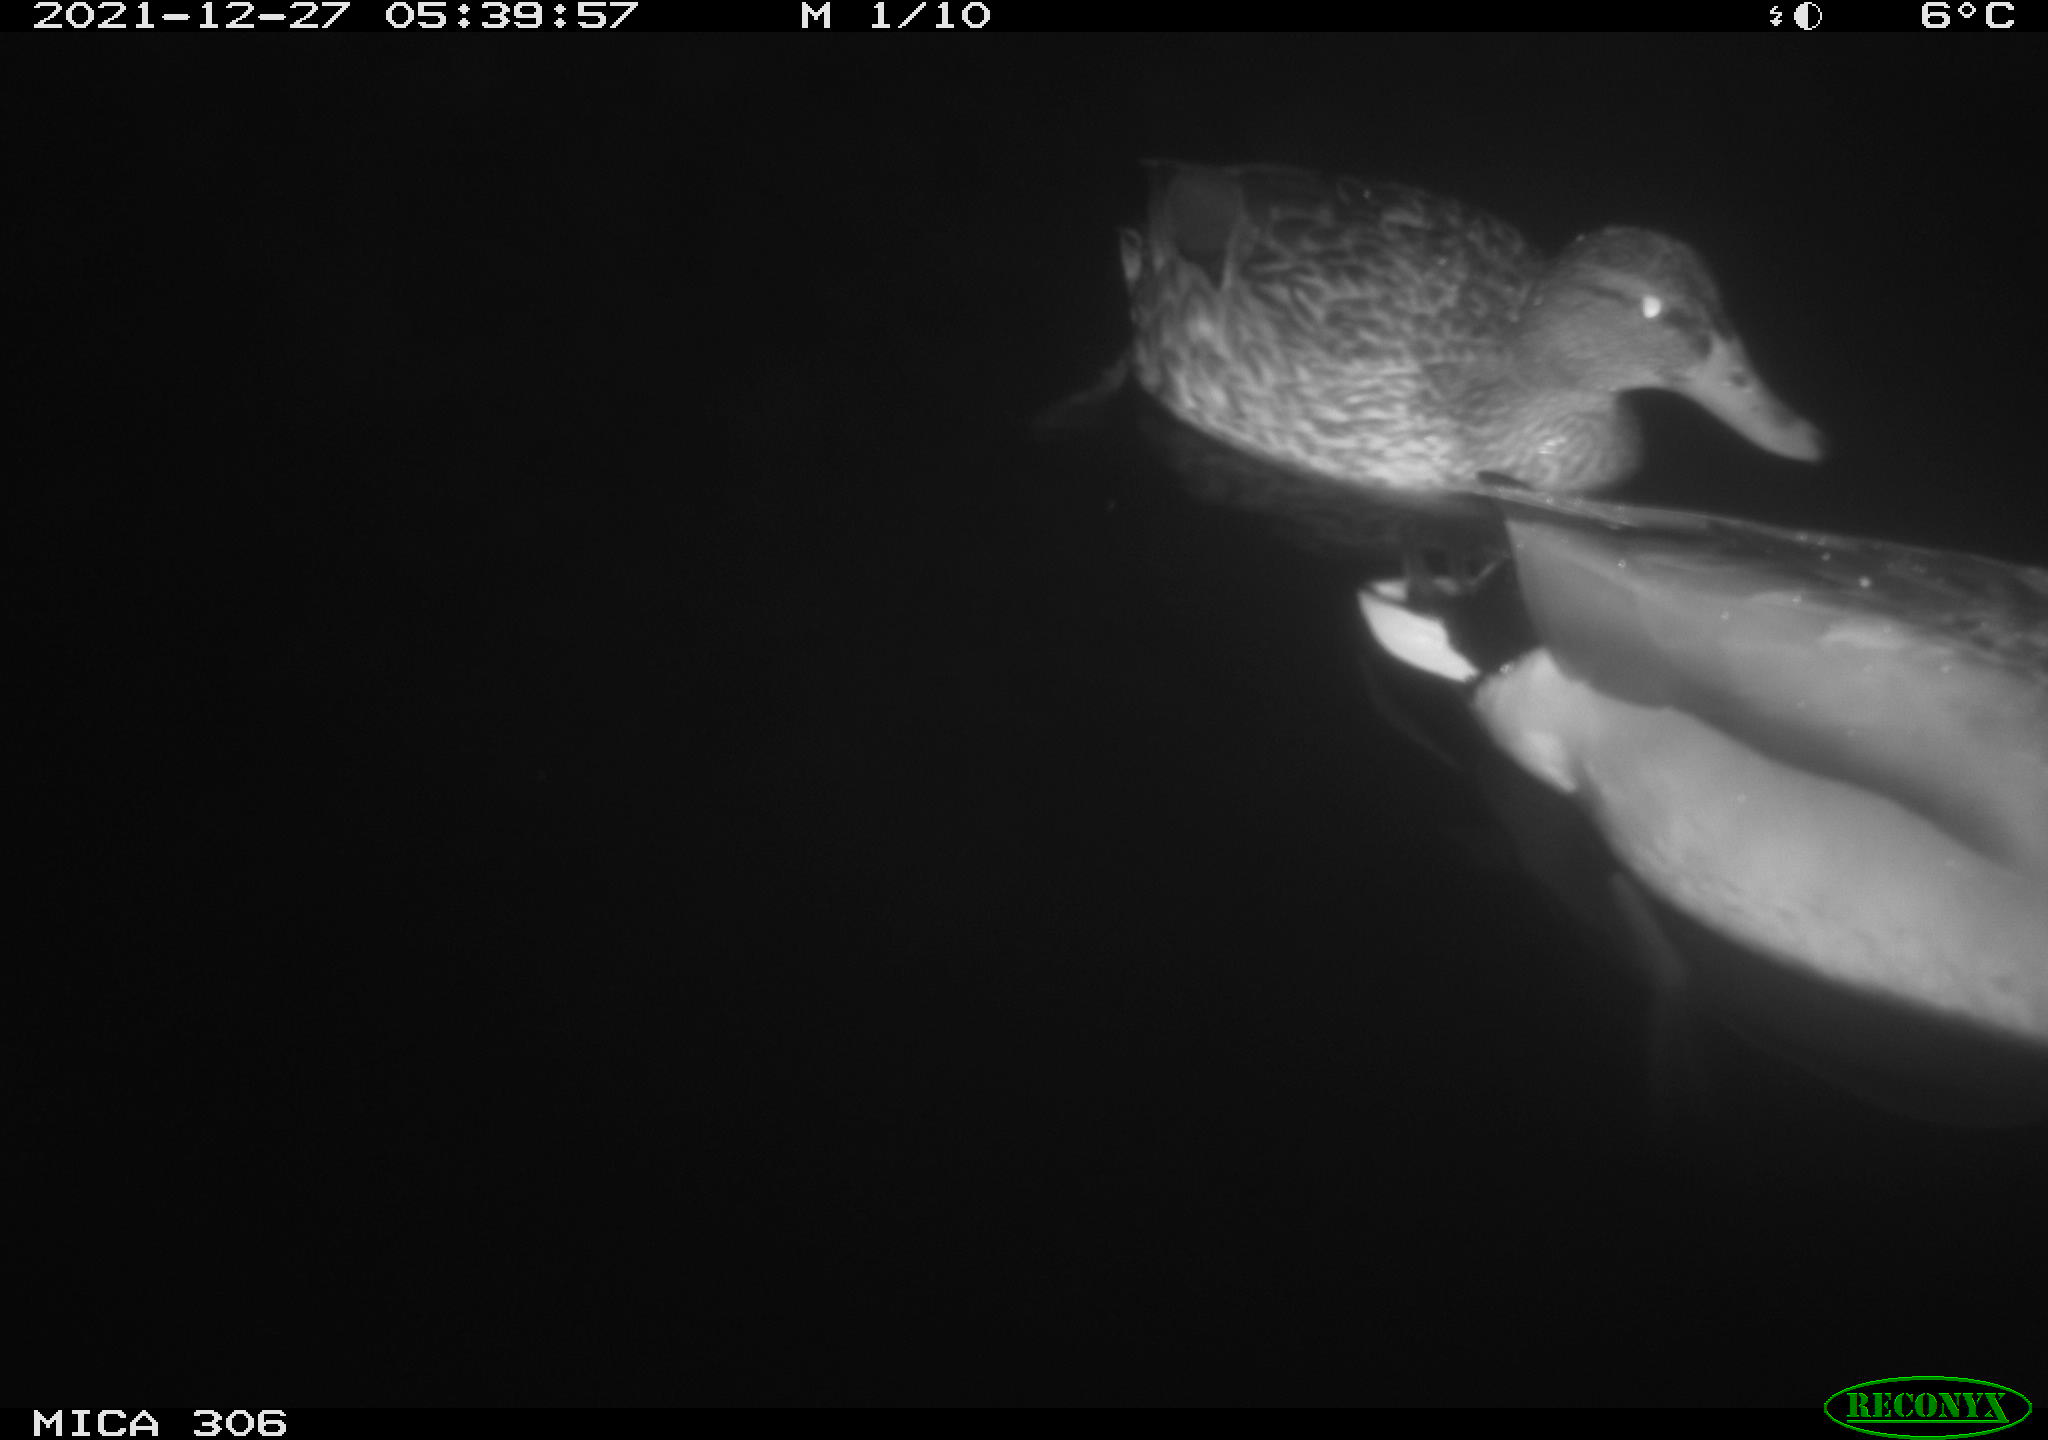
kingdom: Animalia
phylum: Chordata
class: Aves
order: Anseriformes
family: Anatidae
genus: Anas
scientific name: Anas
